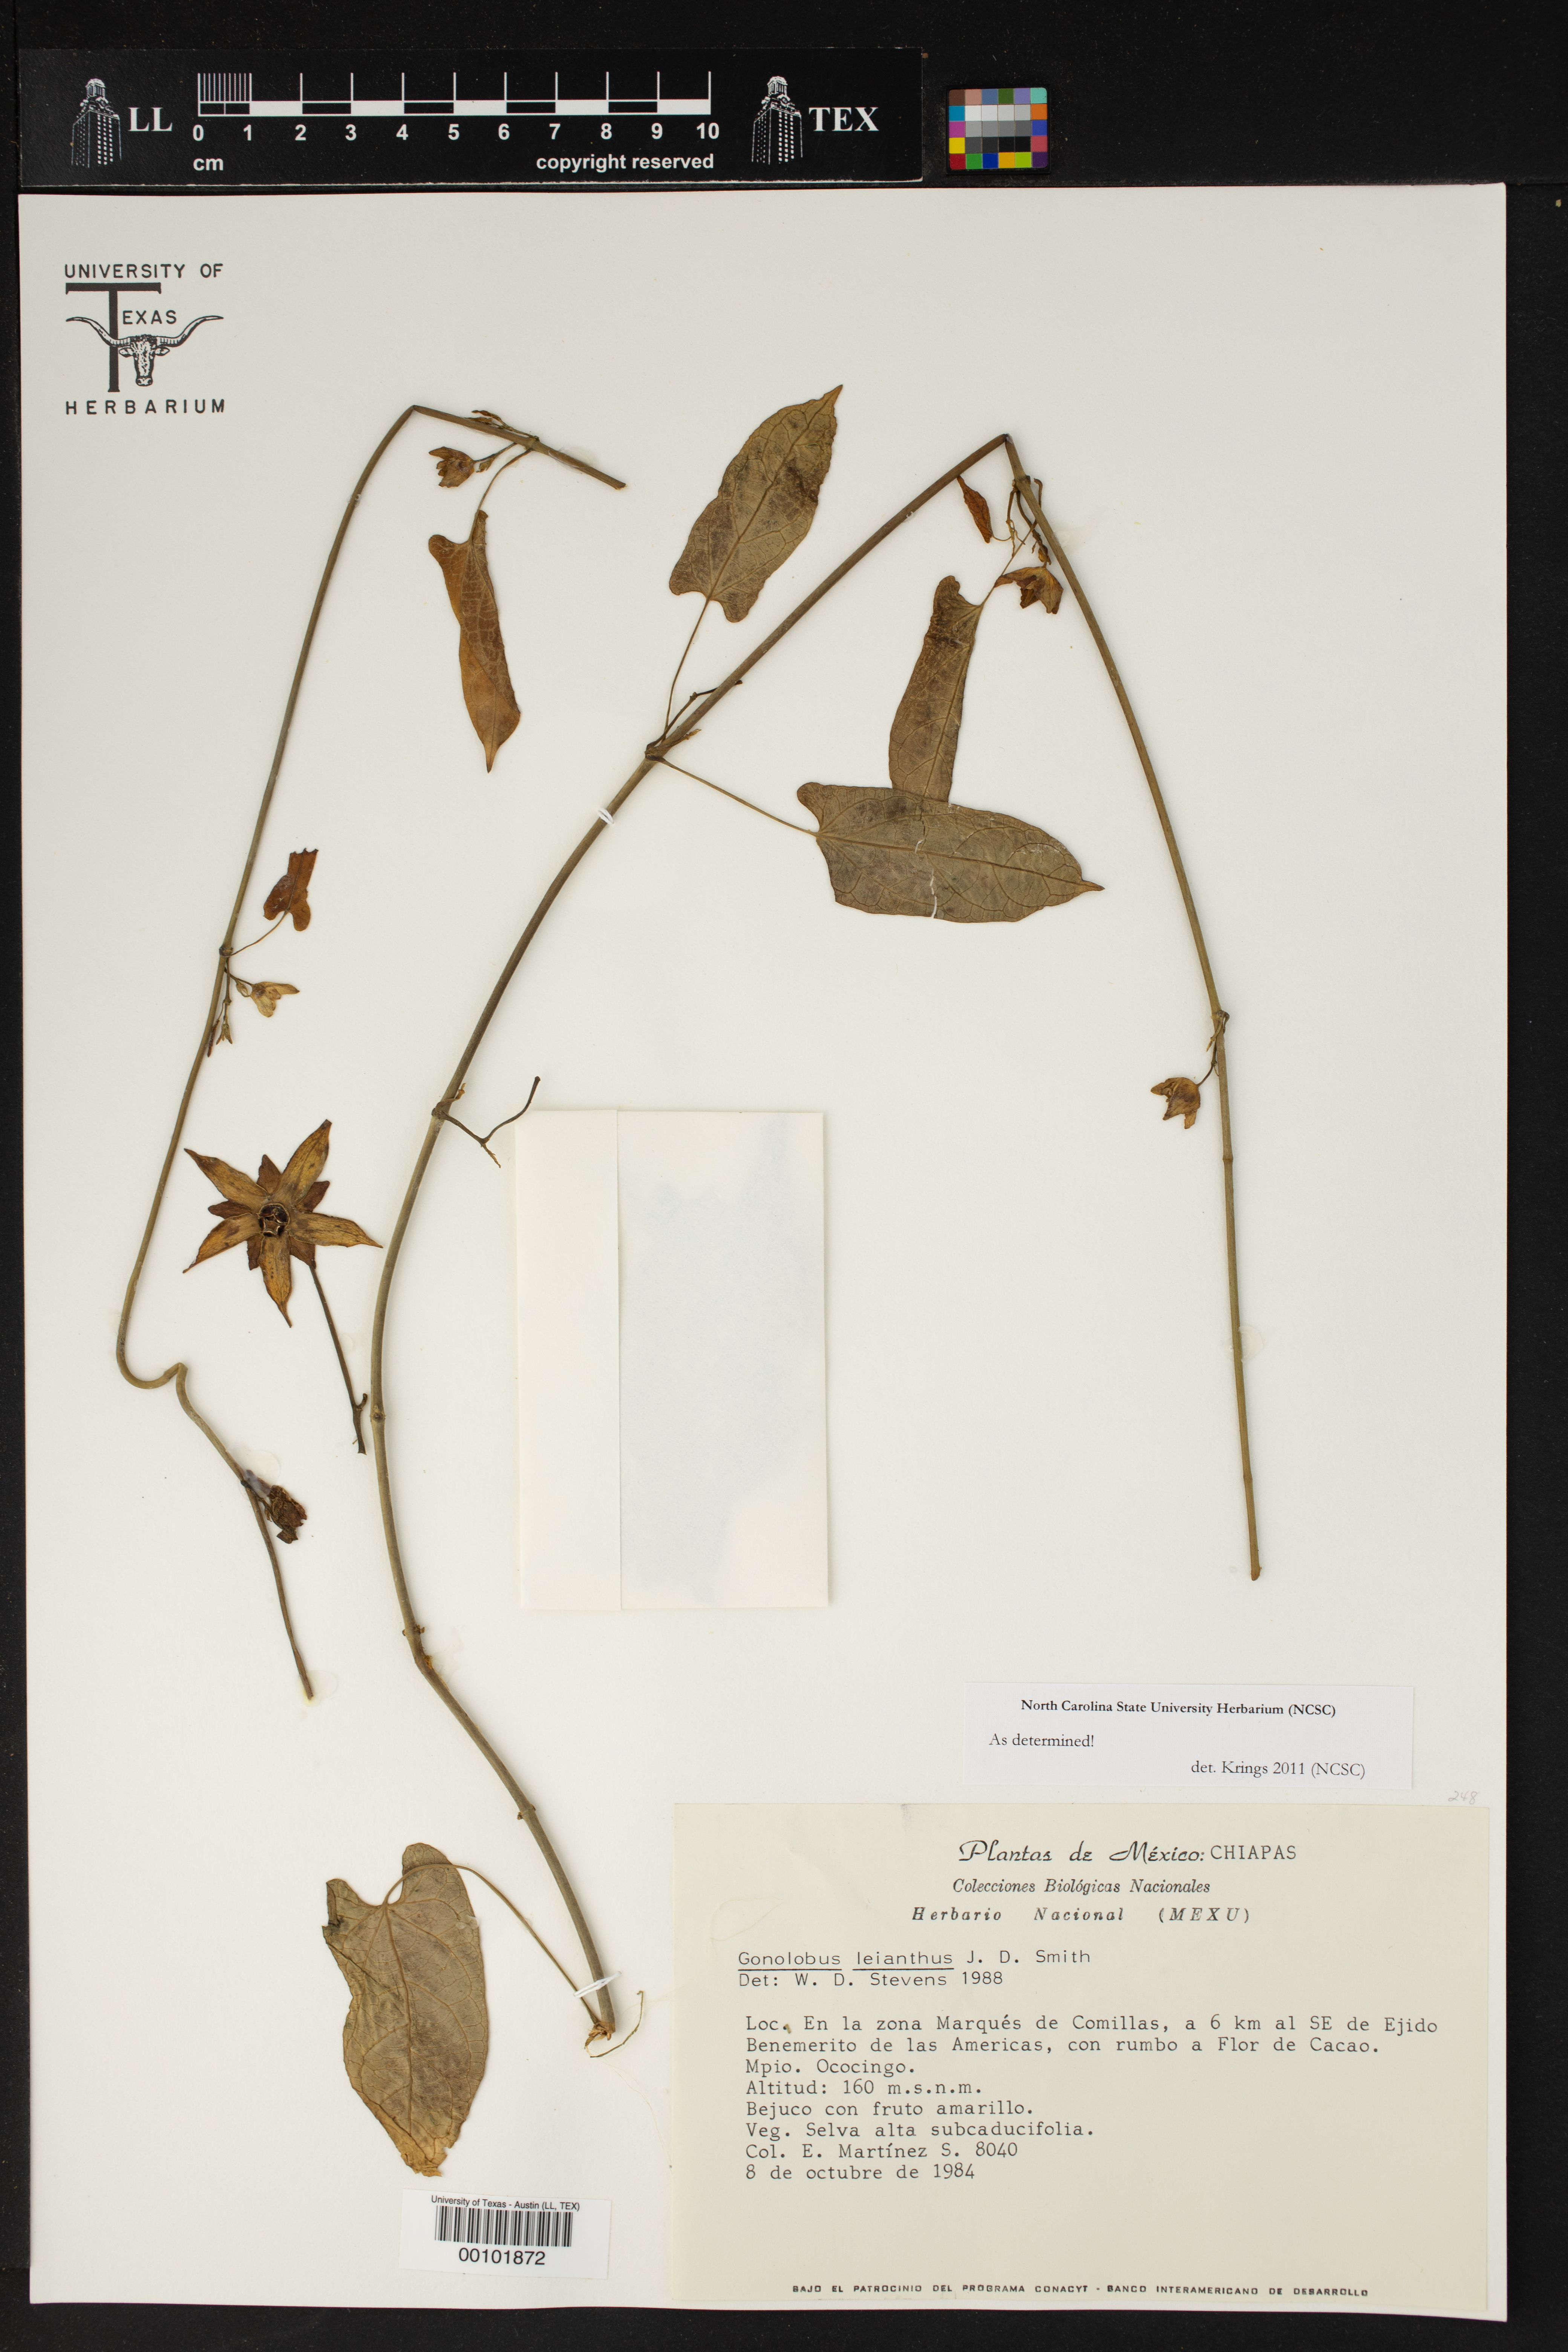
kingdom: Plantae
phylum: Tracheophyta
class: Magnoliopsida
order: Gentianales
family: Apocynaceae
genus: Gonolobus
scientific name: Gonolobus leianthus
